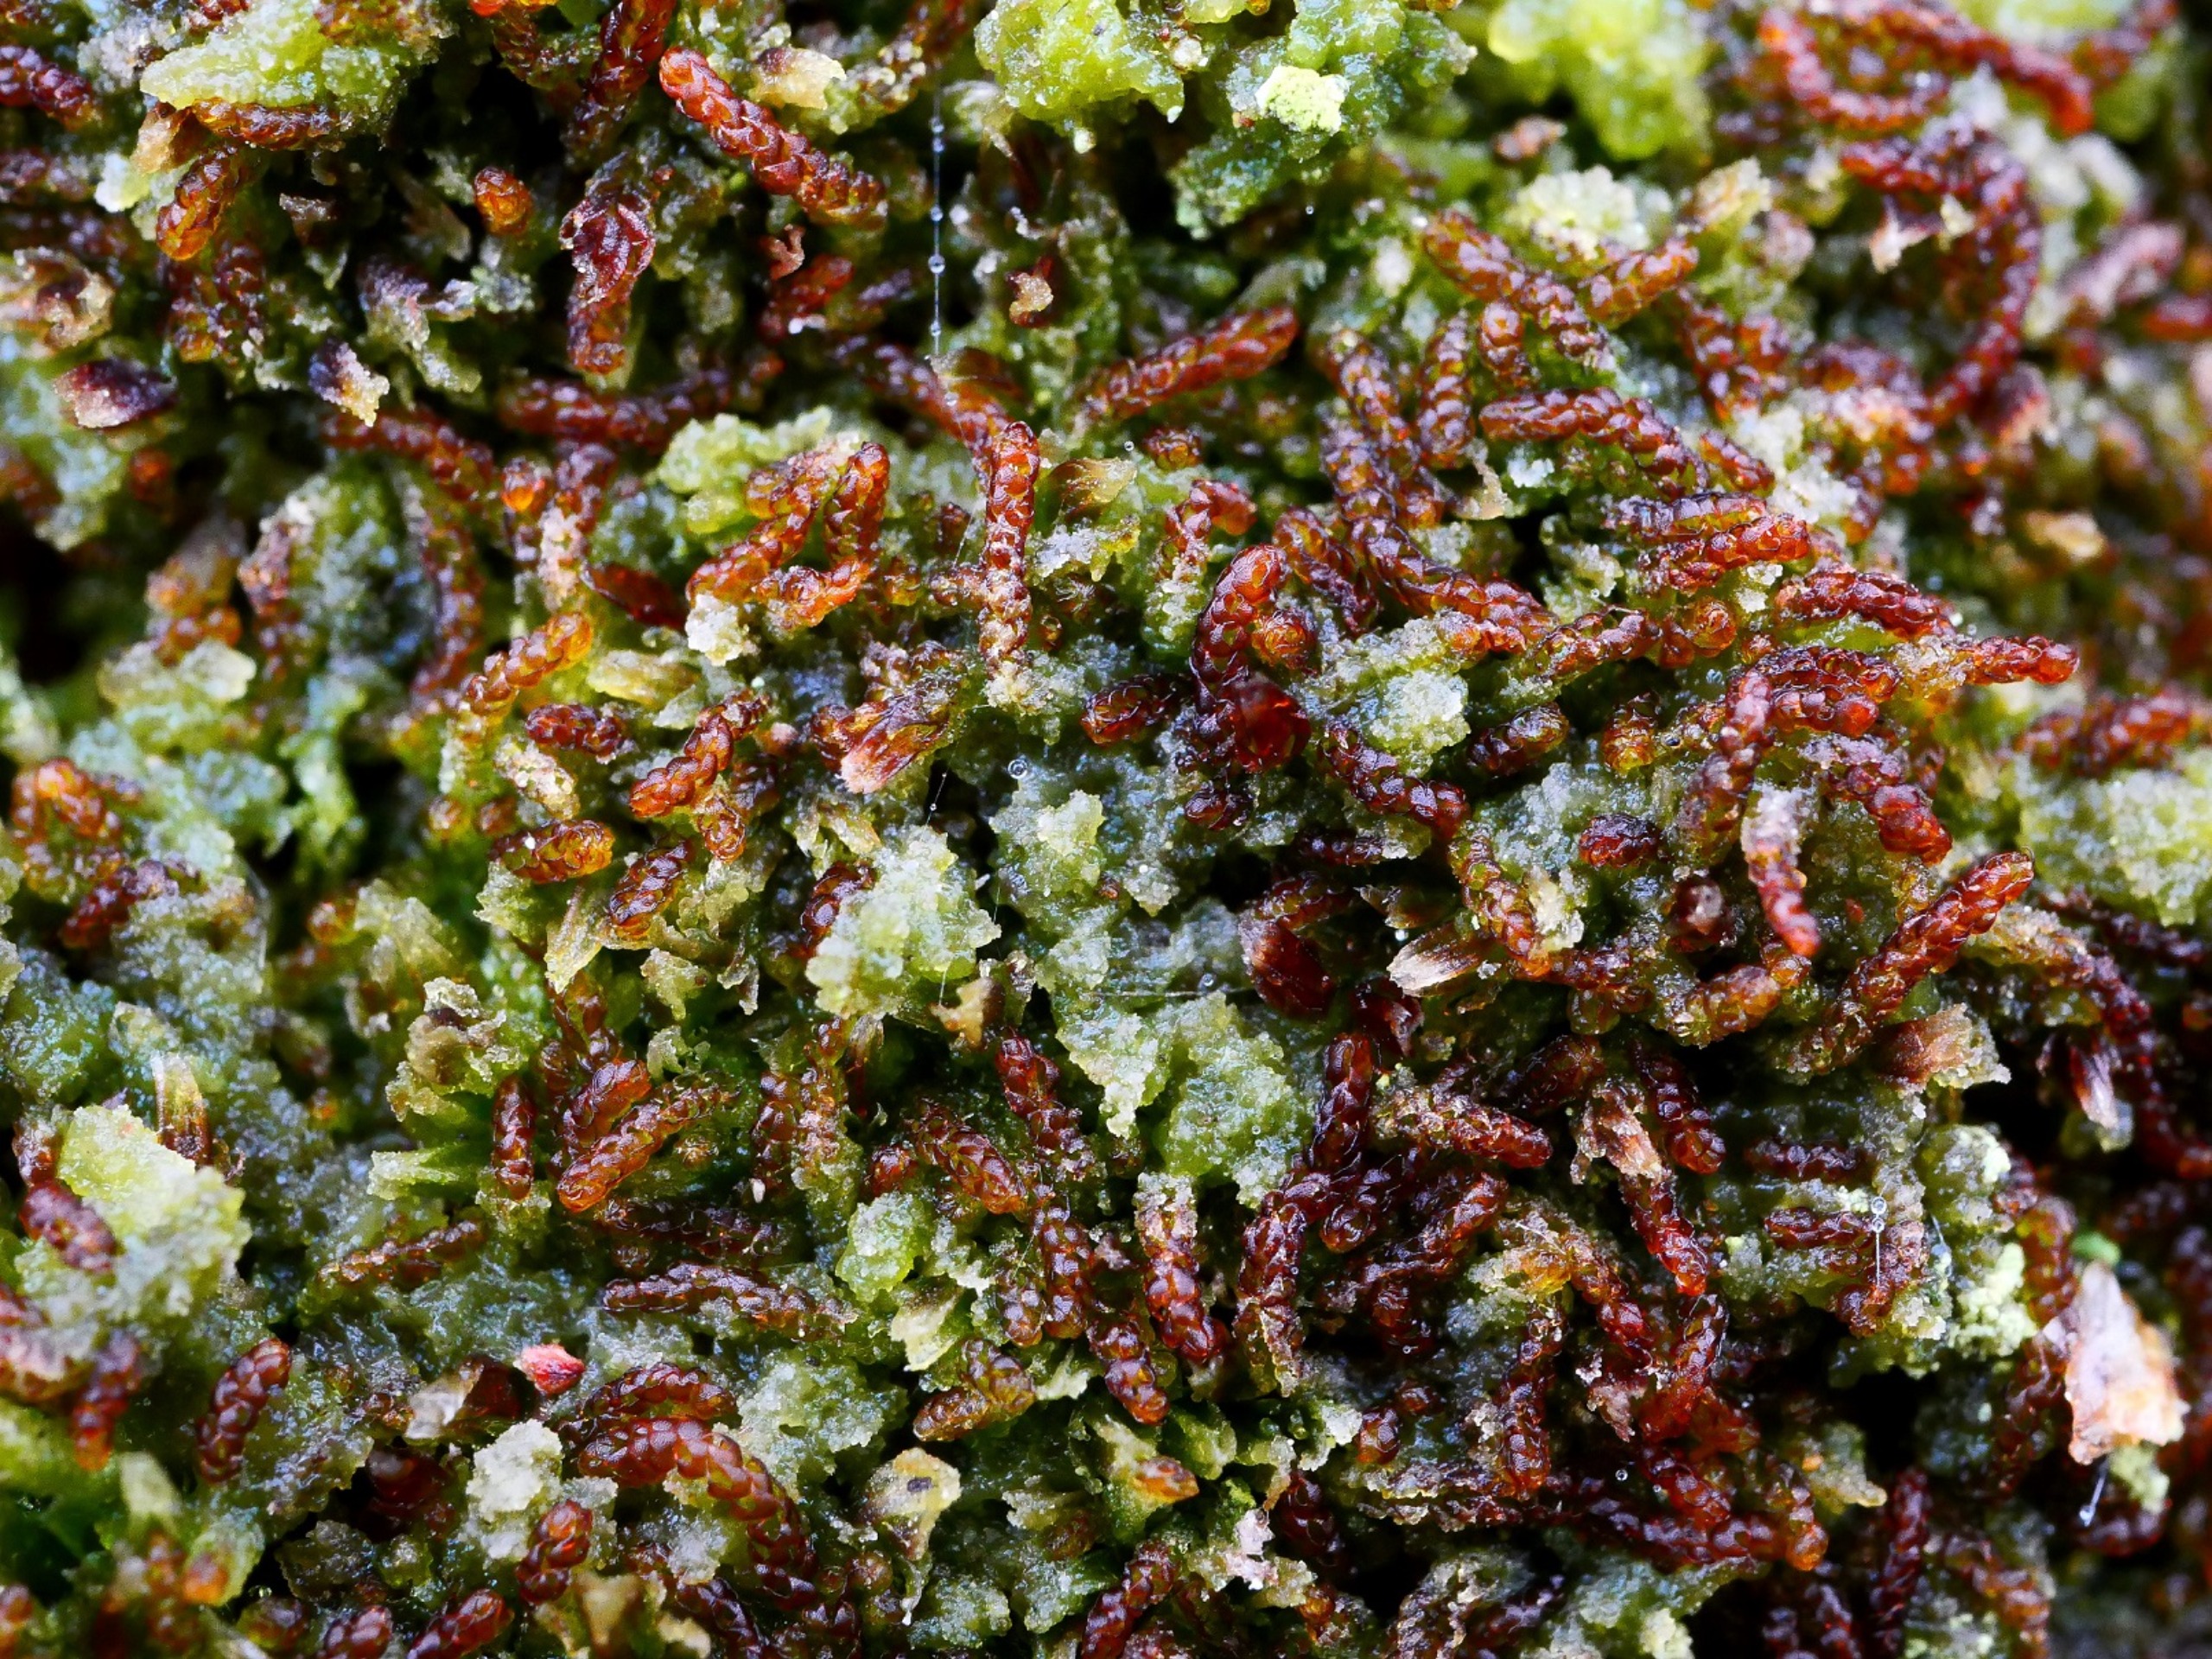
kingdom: Plantae
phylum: Marchantiophyta
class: Jungermanniopsida
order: Jungermanniales
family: Cephaloziaceae
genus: Nowellia
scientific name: Nowellia curvifolia
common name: Krumbladet stødmos
